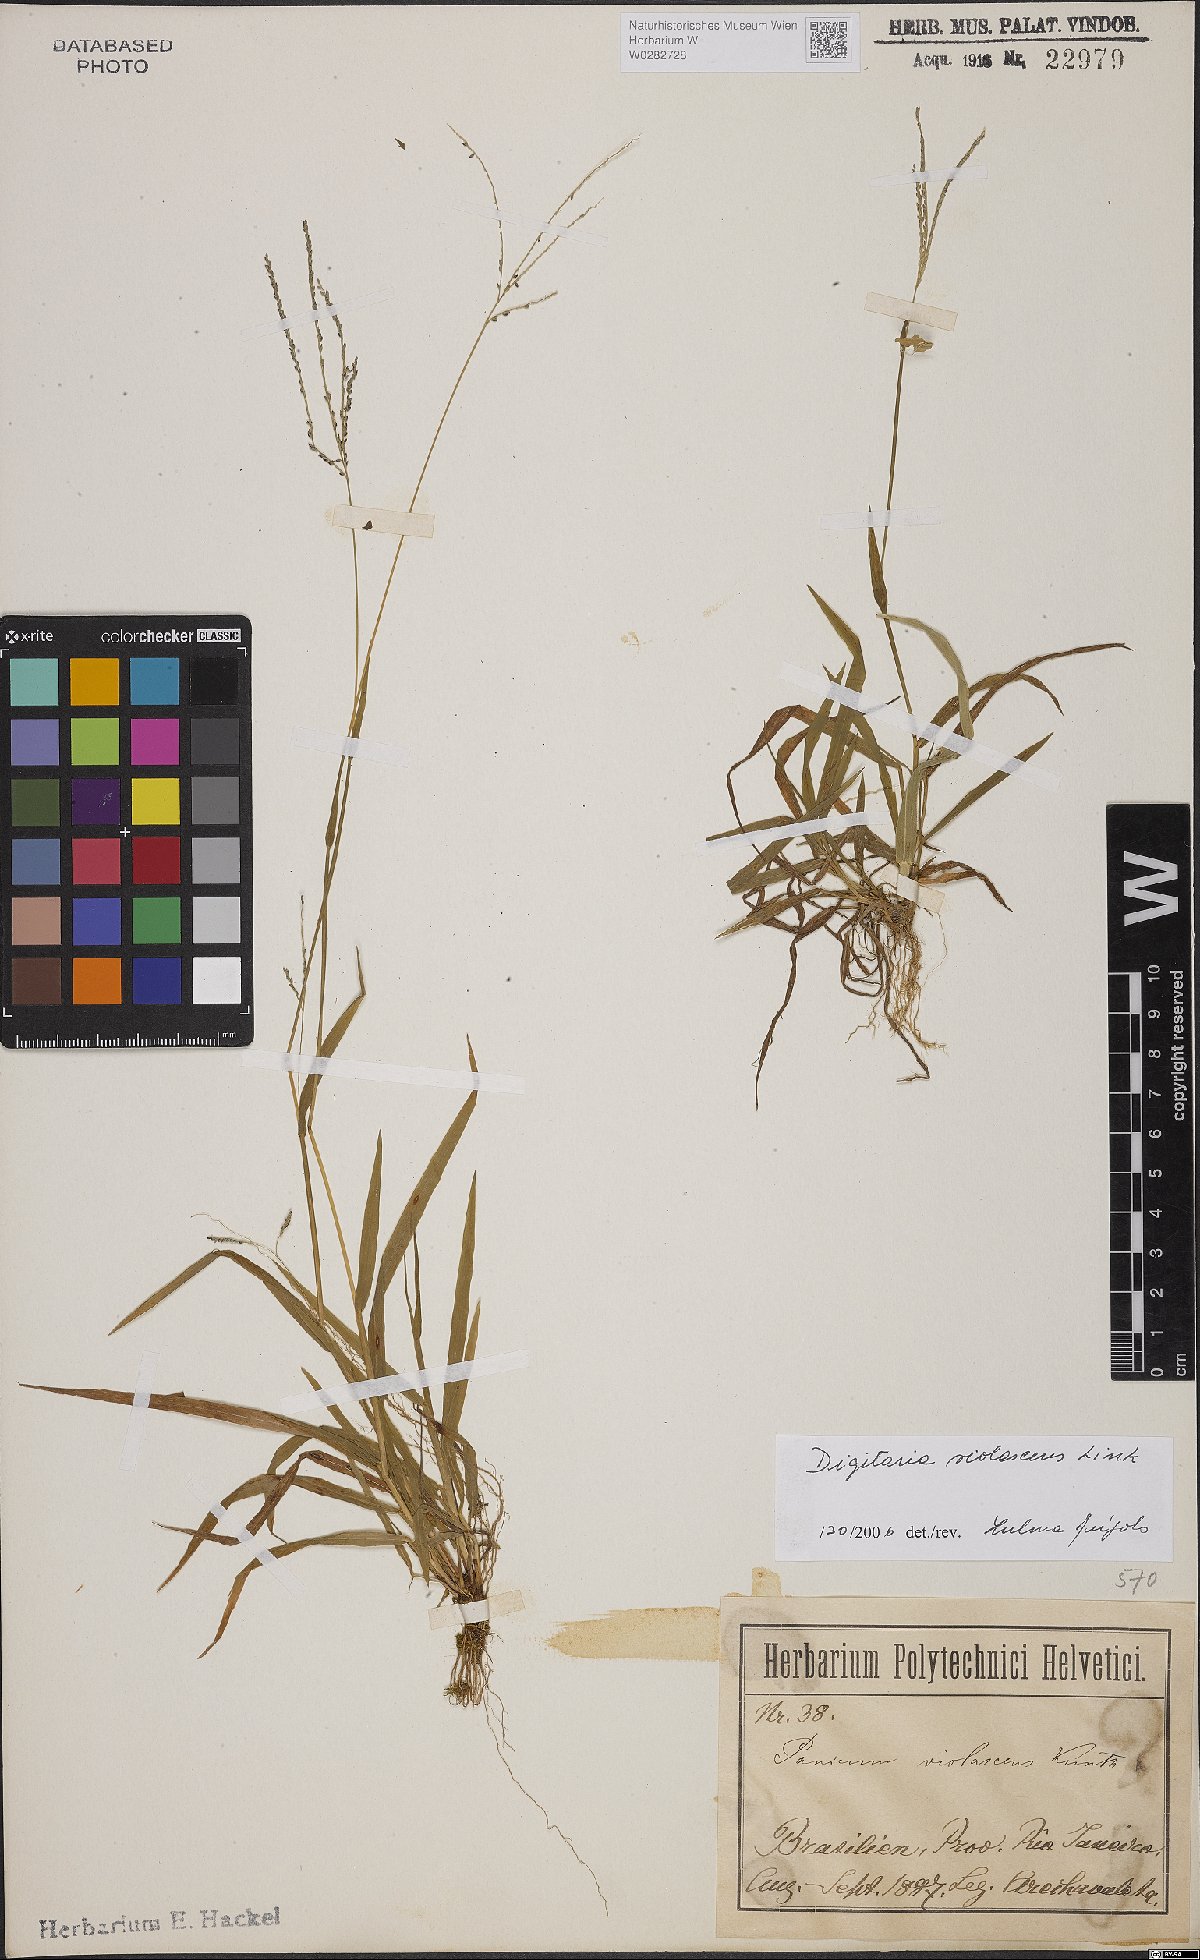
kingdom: Plantae
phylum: Tracheophyta
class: Liliopsida
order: Poales
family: Poaceae
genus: Digitaria
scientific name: Digitaria violascens
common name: Violet crabgrass
